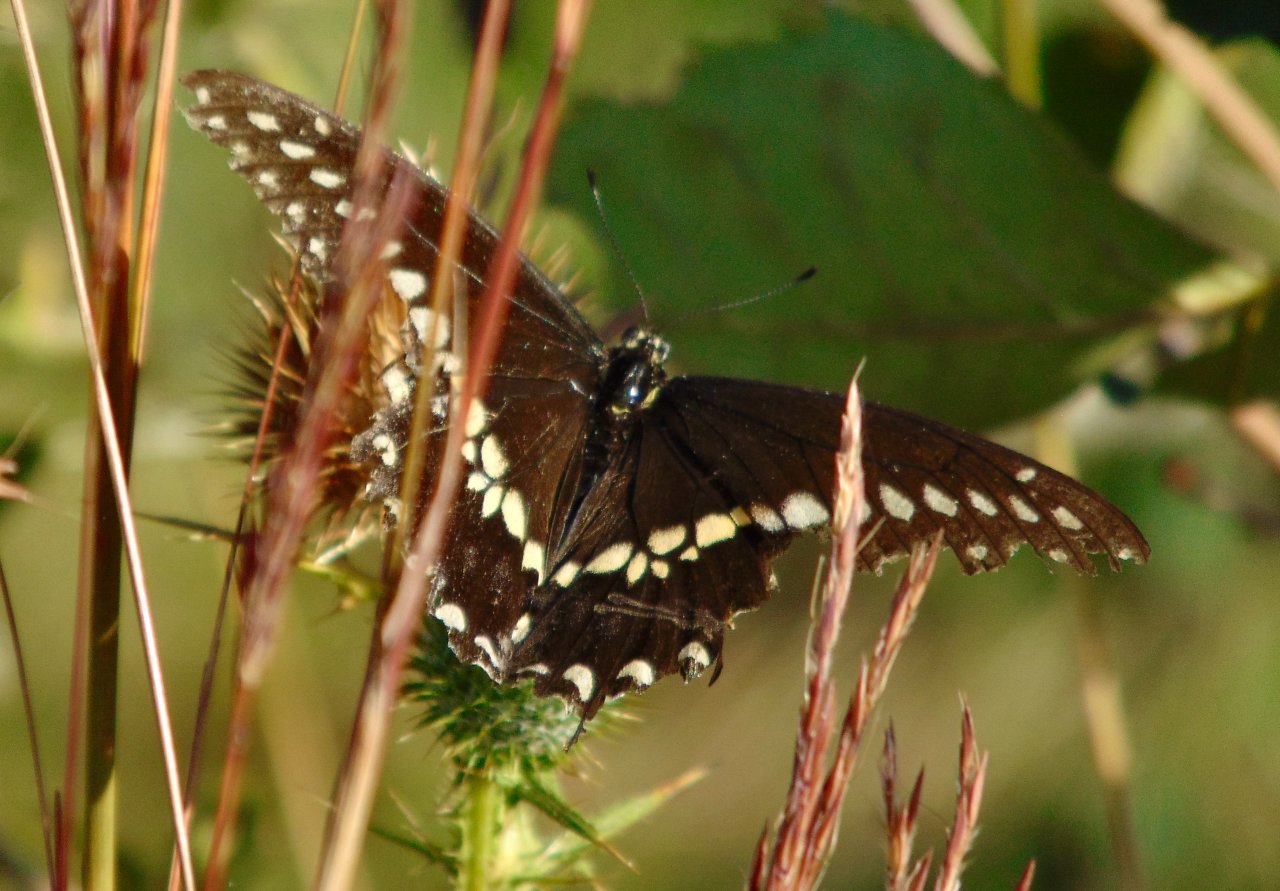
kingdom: Animalia
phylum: Arthropoda
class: Insecta
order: Lepidoptera
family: Papilionidae
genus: Papilio
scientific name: Papilio polyxenes
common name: Black Swallowtail
